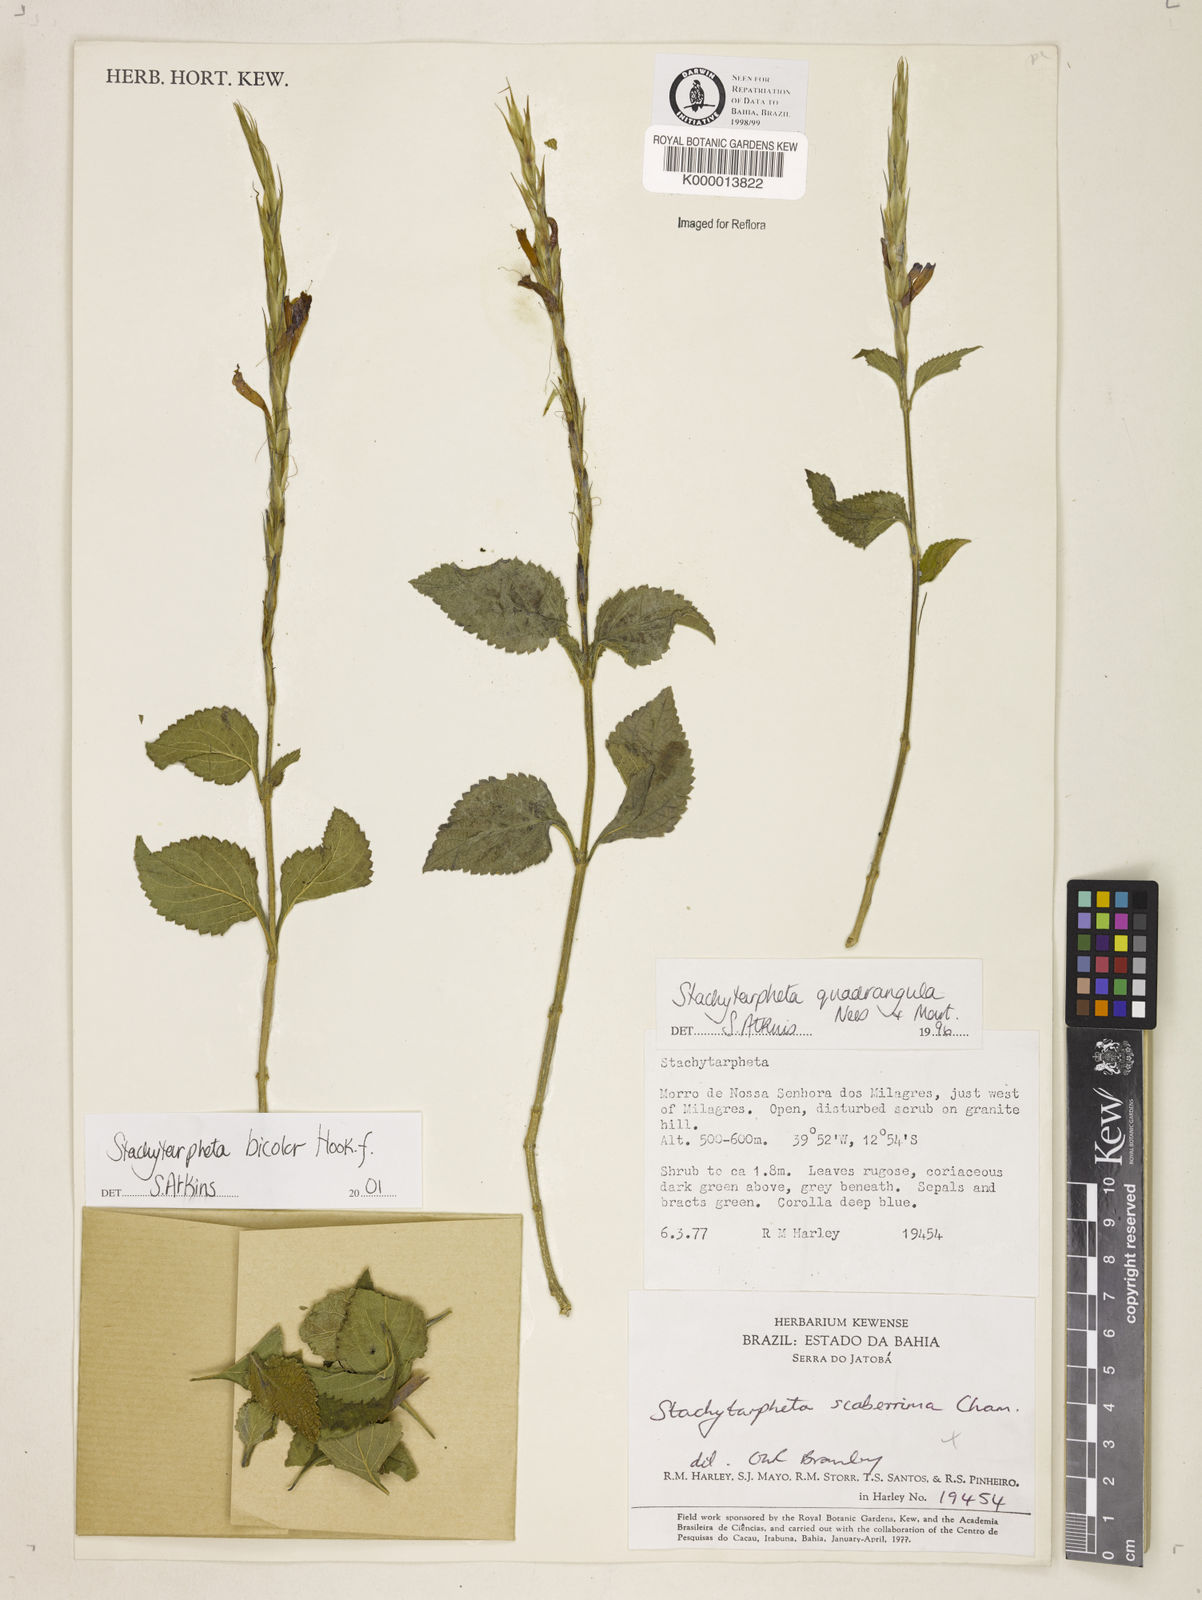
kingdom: Plantae
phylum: Tracheophyta
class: Magnoliopsida
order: Lamiales
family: Verbenaceae
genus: Stachytarpheta
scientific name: Stachytarpheta bicolor
